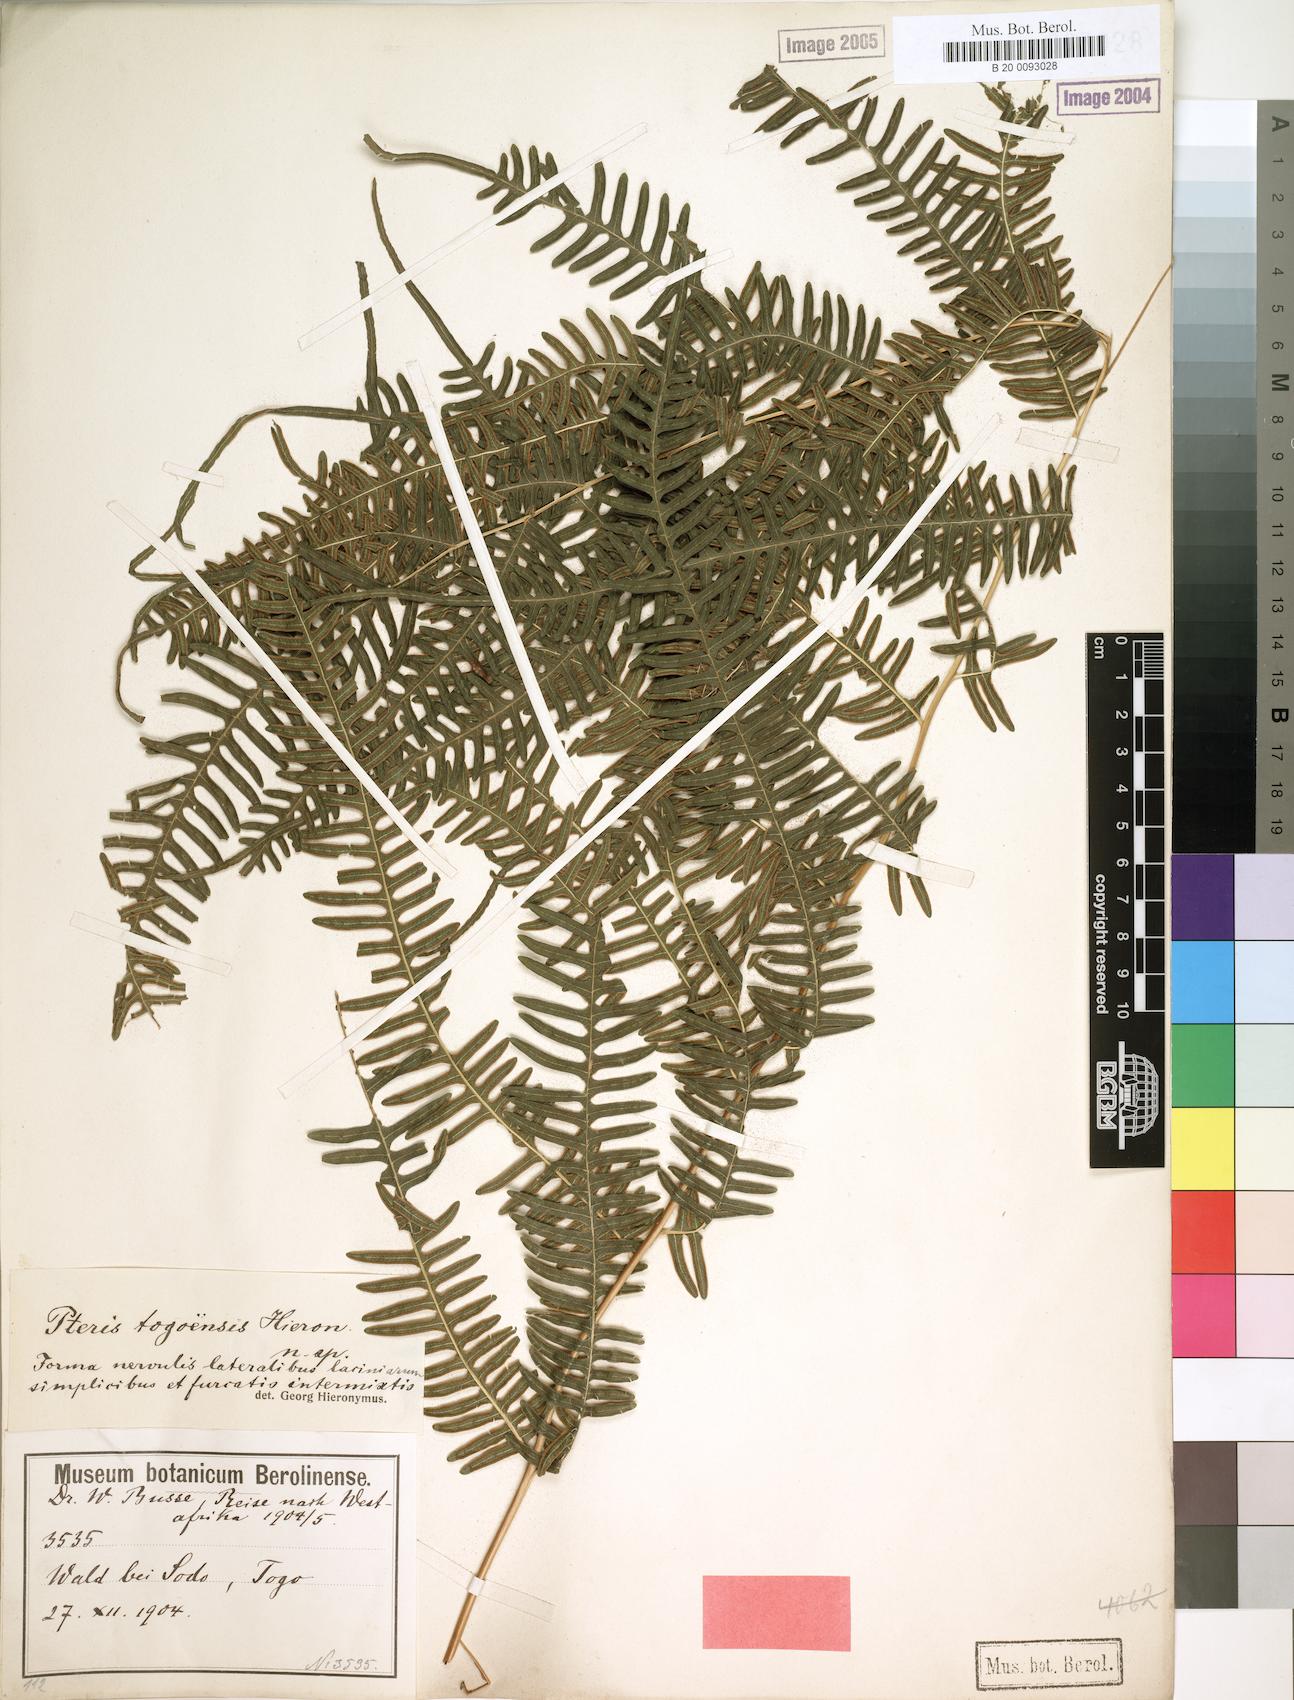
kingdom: Plantae
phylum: Tracheophyta
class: Polypodiopsida
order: Polypodiales
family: Pteridaceae
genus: Pteris
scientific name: Pteris togoensis
